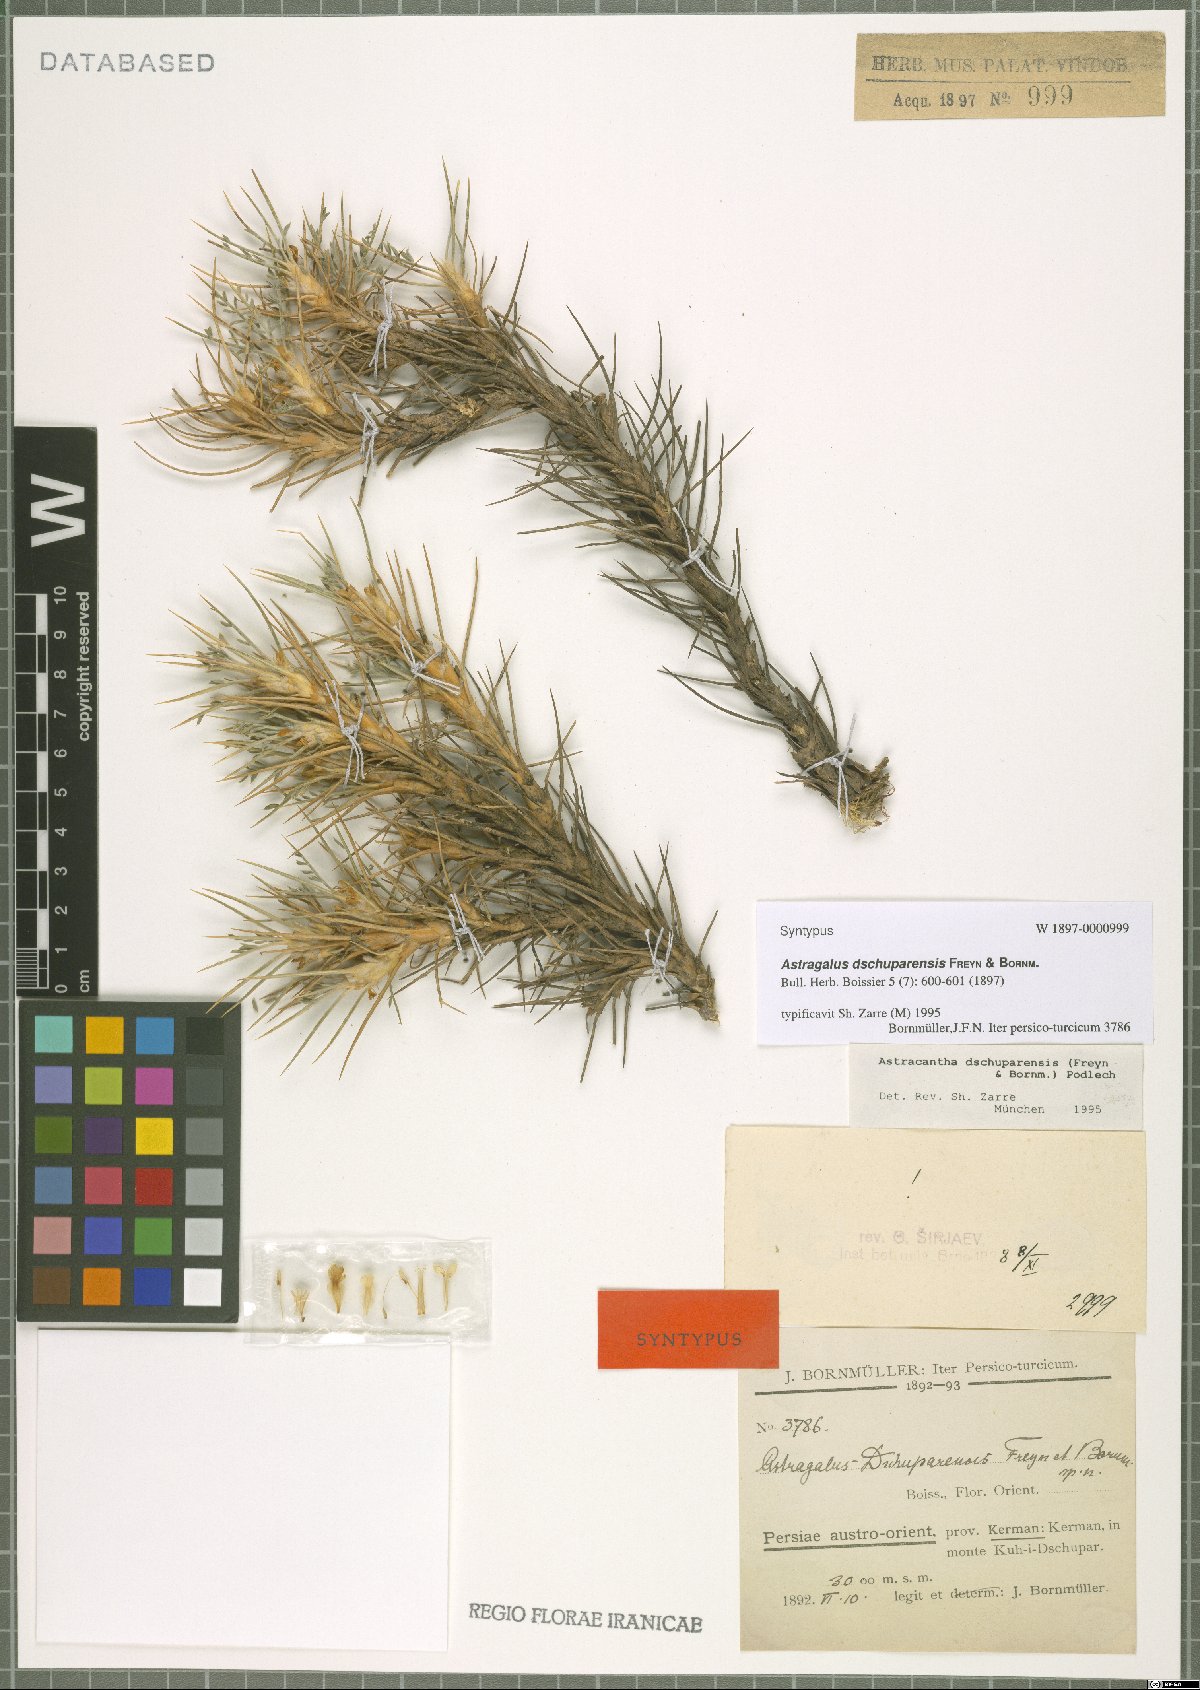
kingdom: Plantae
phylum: Tracheophyta
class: Magnoliopsida
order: Fabales
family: Fabaceae
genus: Astragalus
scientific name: Astragalus dschuparensis
